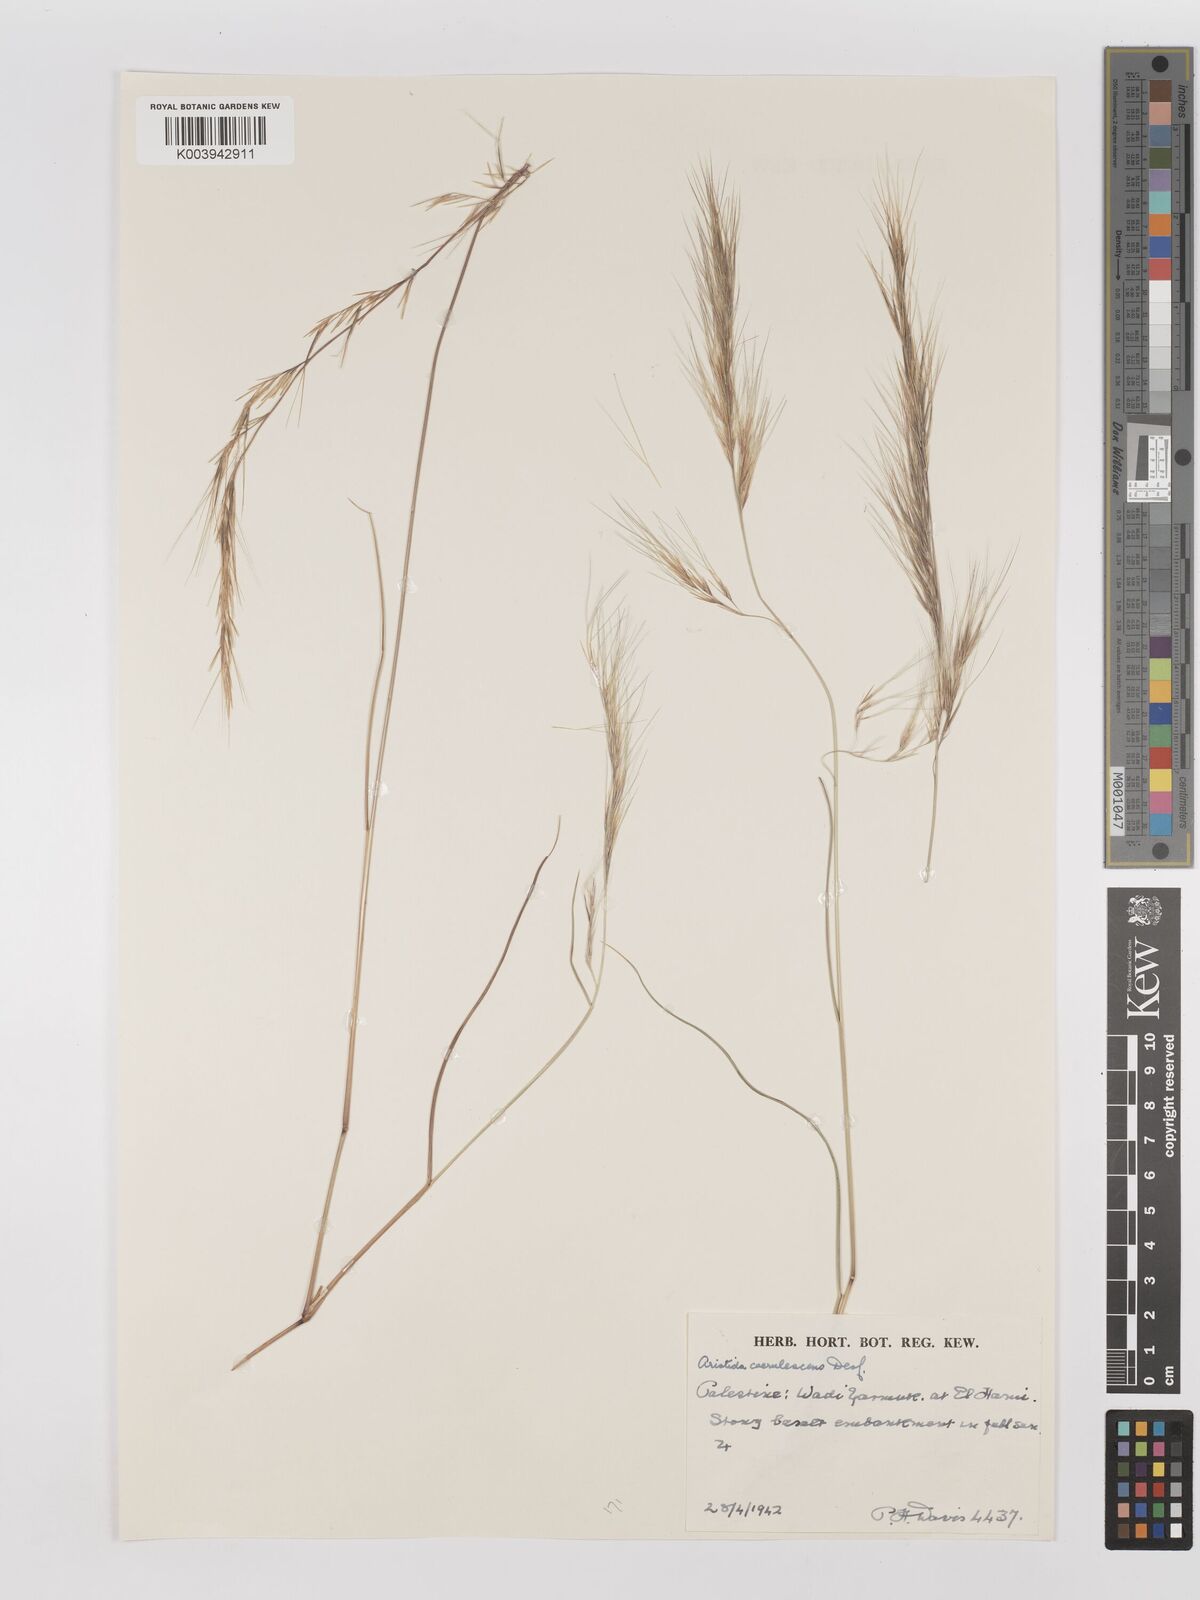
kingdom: Plantae
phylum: Tracheophyta
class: Liliopsida
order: Poales
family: Poaceae
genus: Aristida
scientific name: Aristida adscensionis
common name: Sixweeks threeawn
